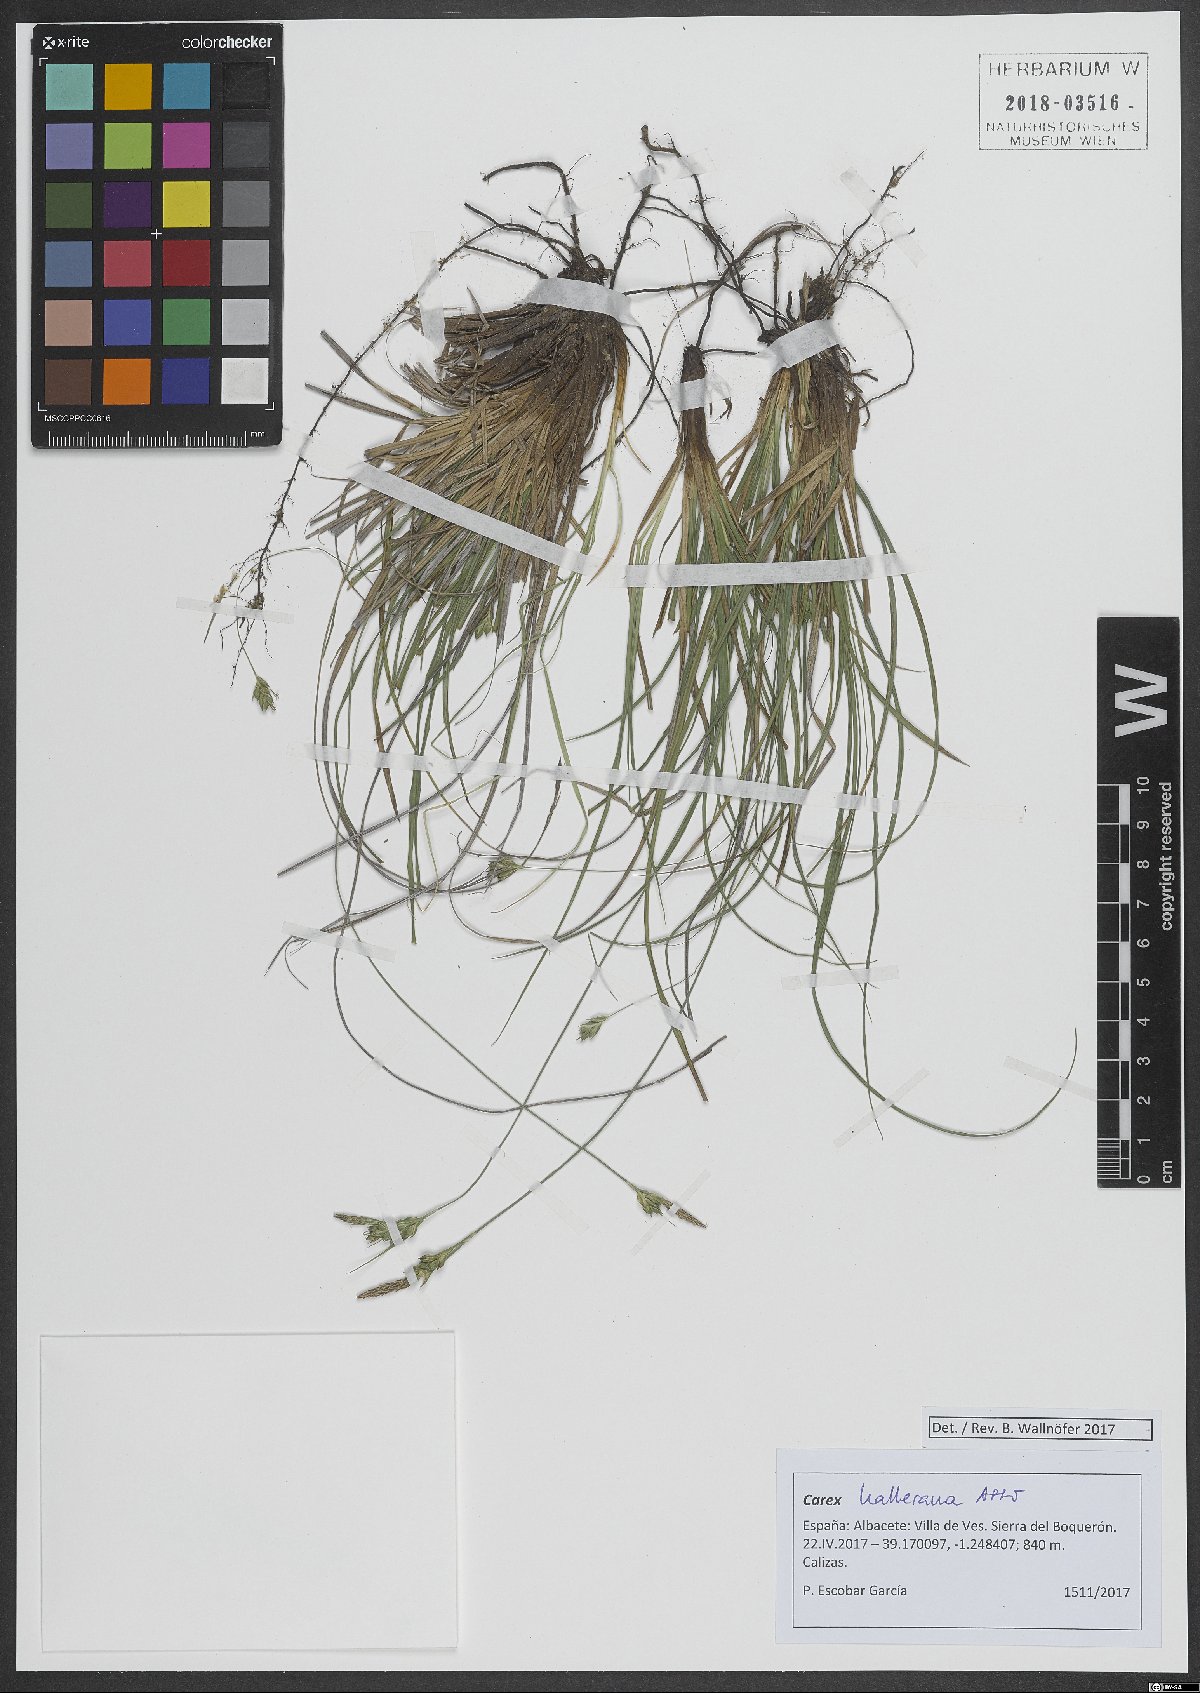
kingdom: Plantae
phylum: Tracheophyta
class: Liliopsida
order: Poales
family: Cyperaceae
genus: Carex
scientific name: Carex halleriana
